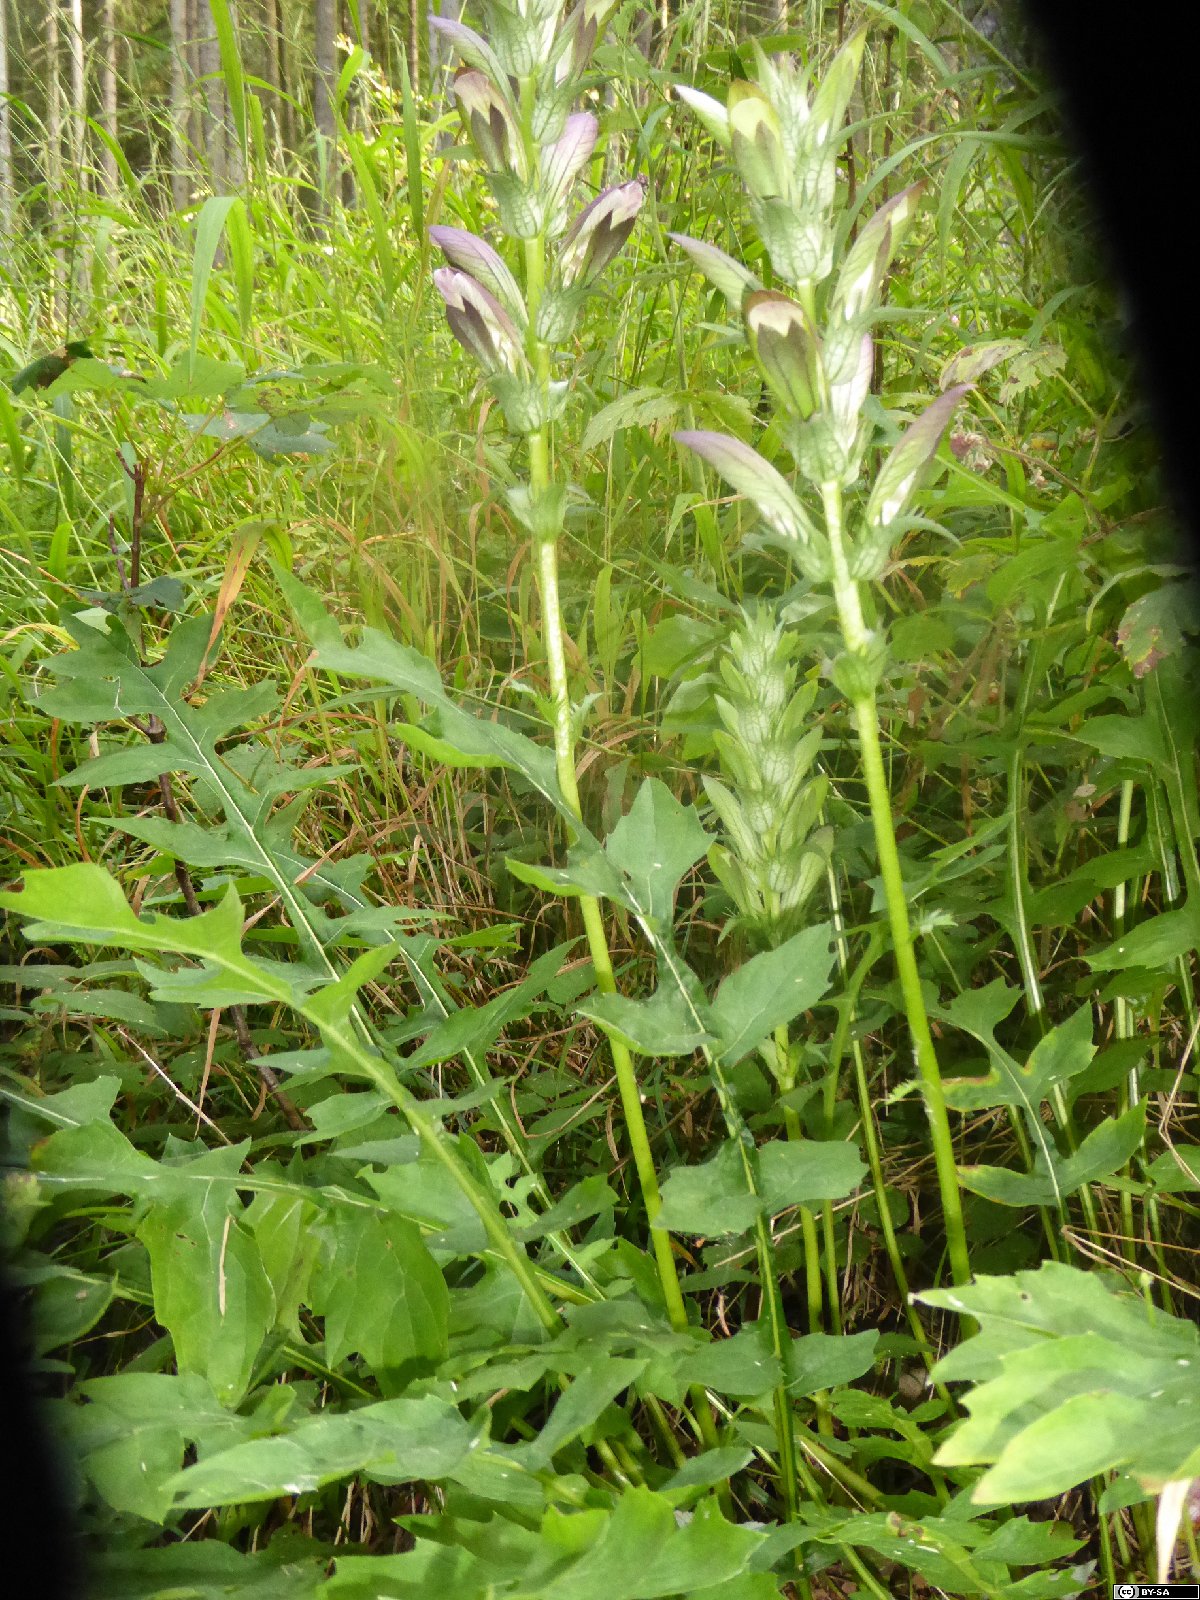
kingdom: Plantae
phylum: Tracheophyta
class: Magnoliopsida
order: Lamiales
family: Acanthaceae
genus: Acanthus
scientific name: Acanthus hungaricus
